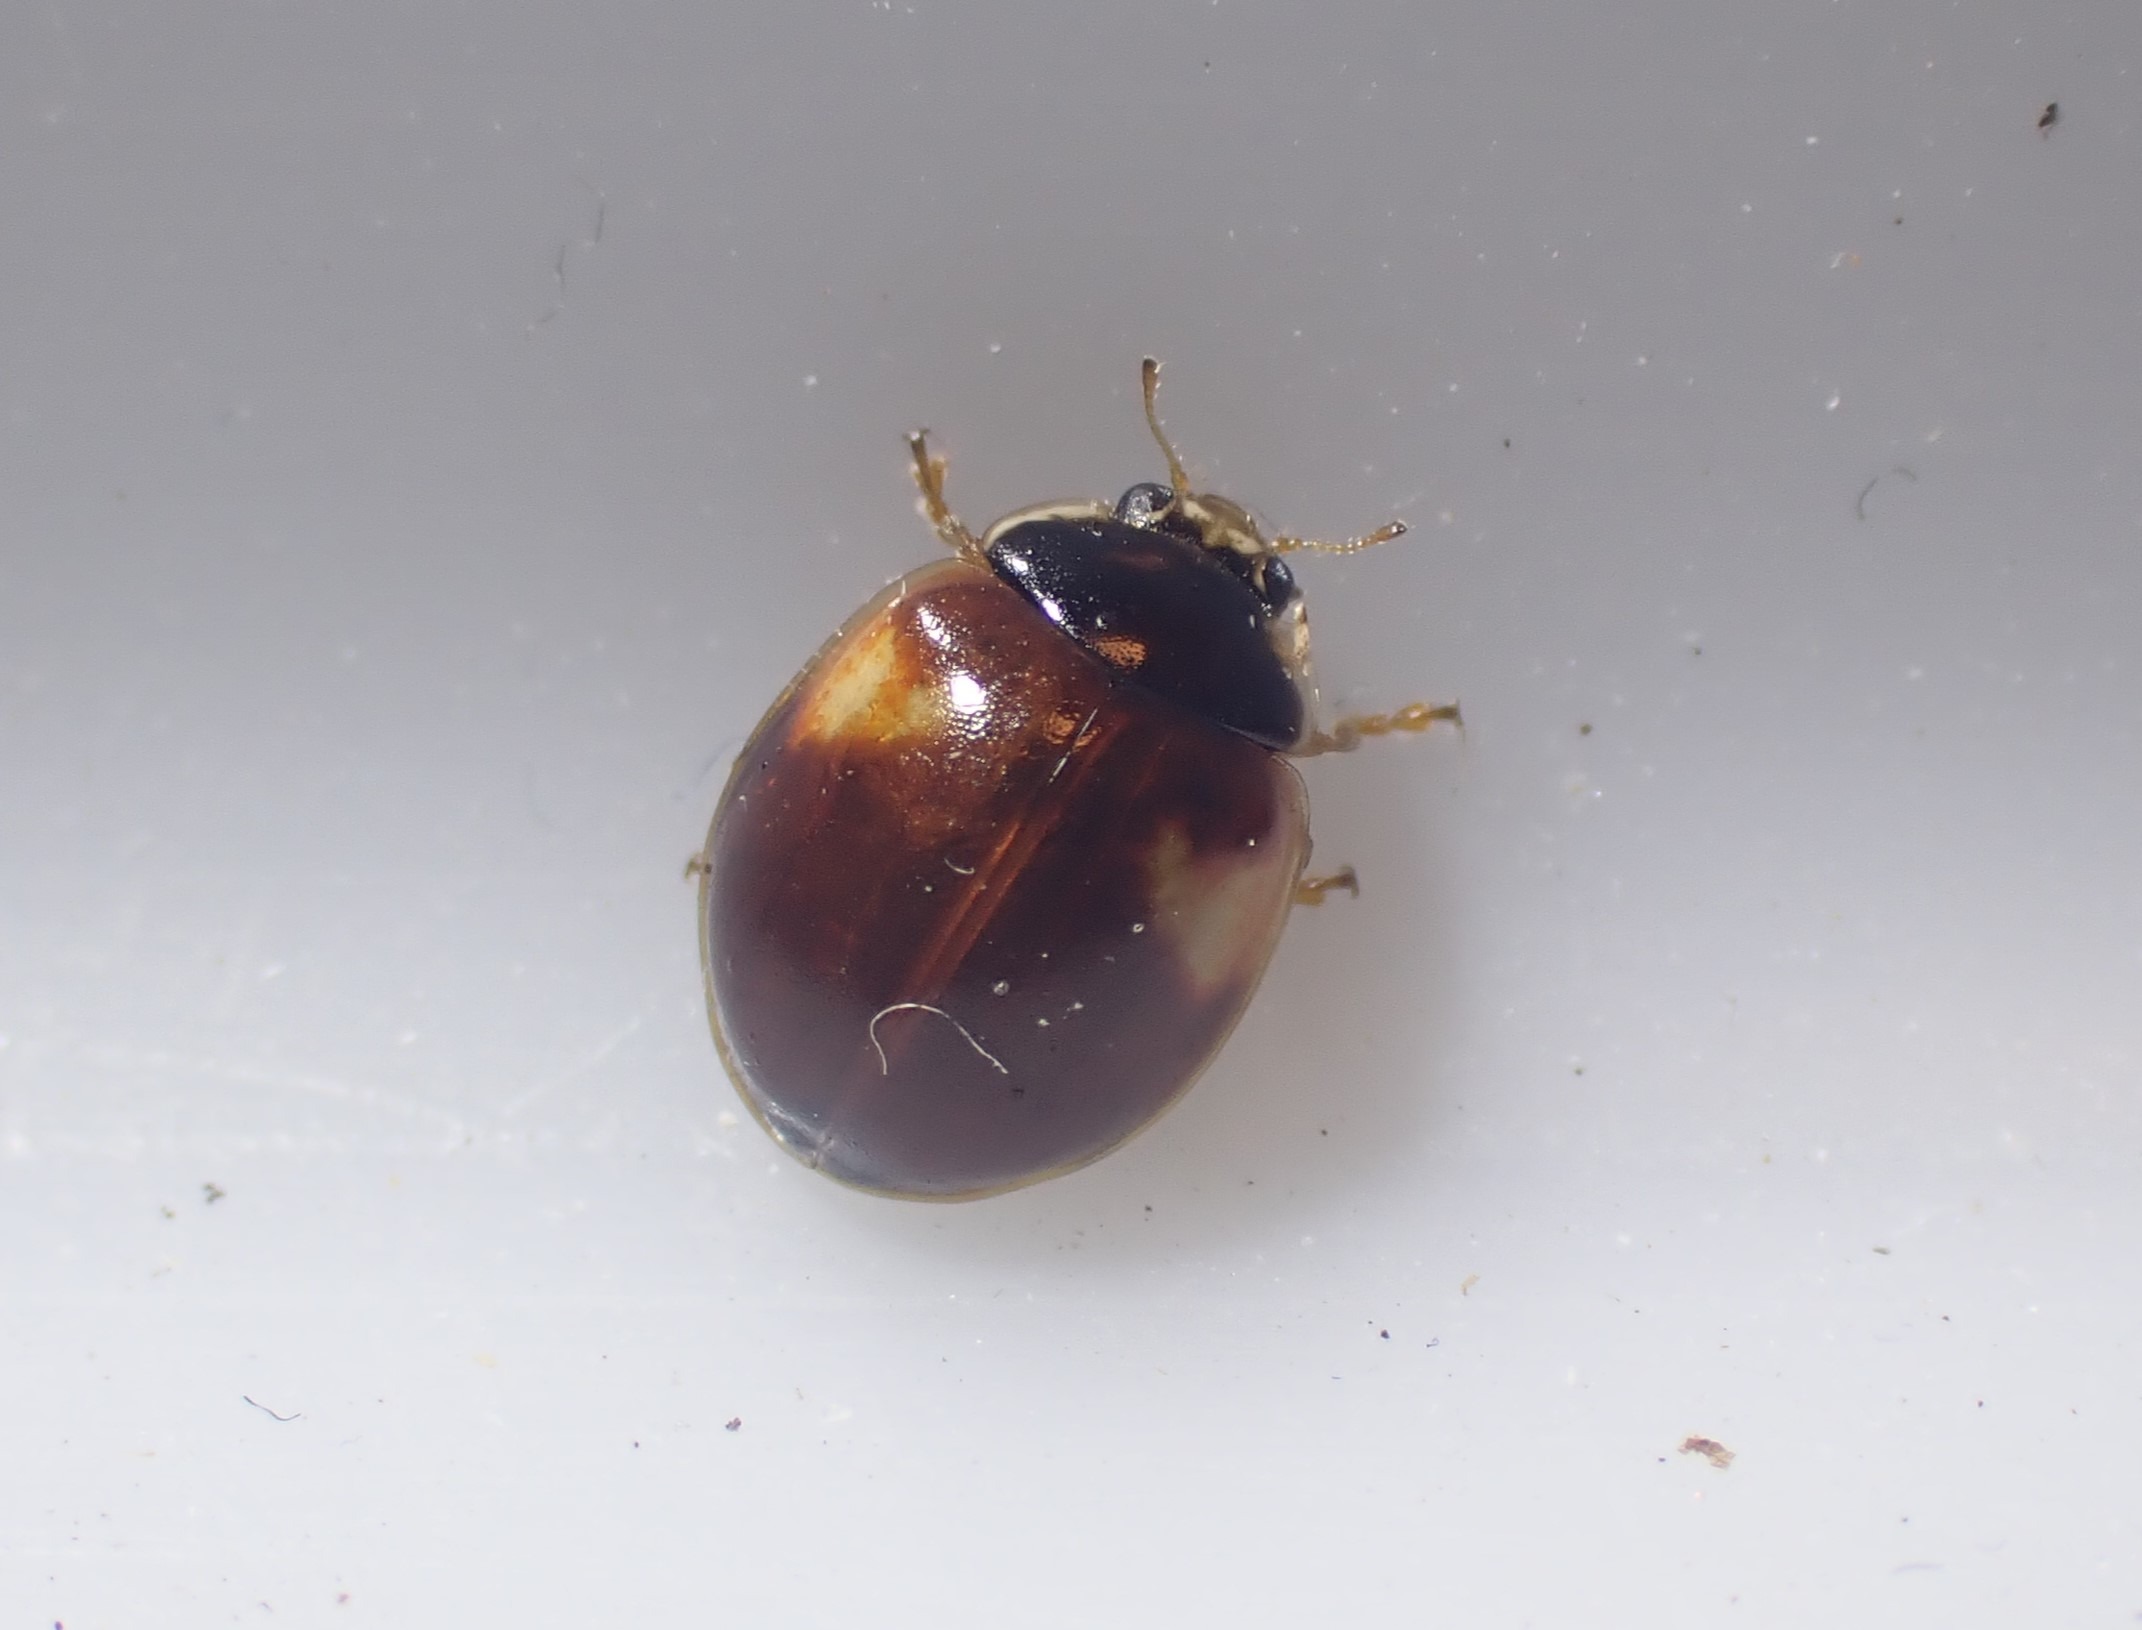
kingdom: Animalia
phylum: Arthropoda
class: Insecta
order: Coleoptera
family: Coccinellidae
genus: Adalia
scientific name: Adalia decempunctata
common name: Tiplettet mariehøne
